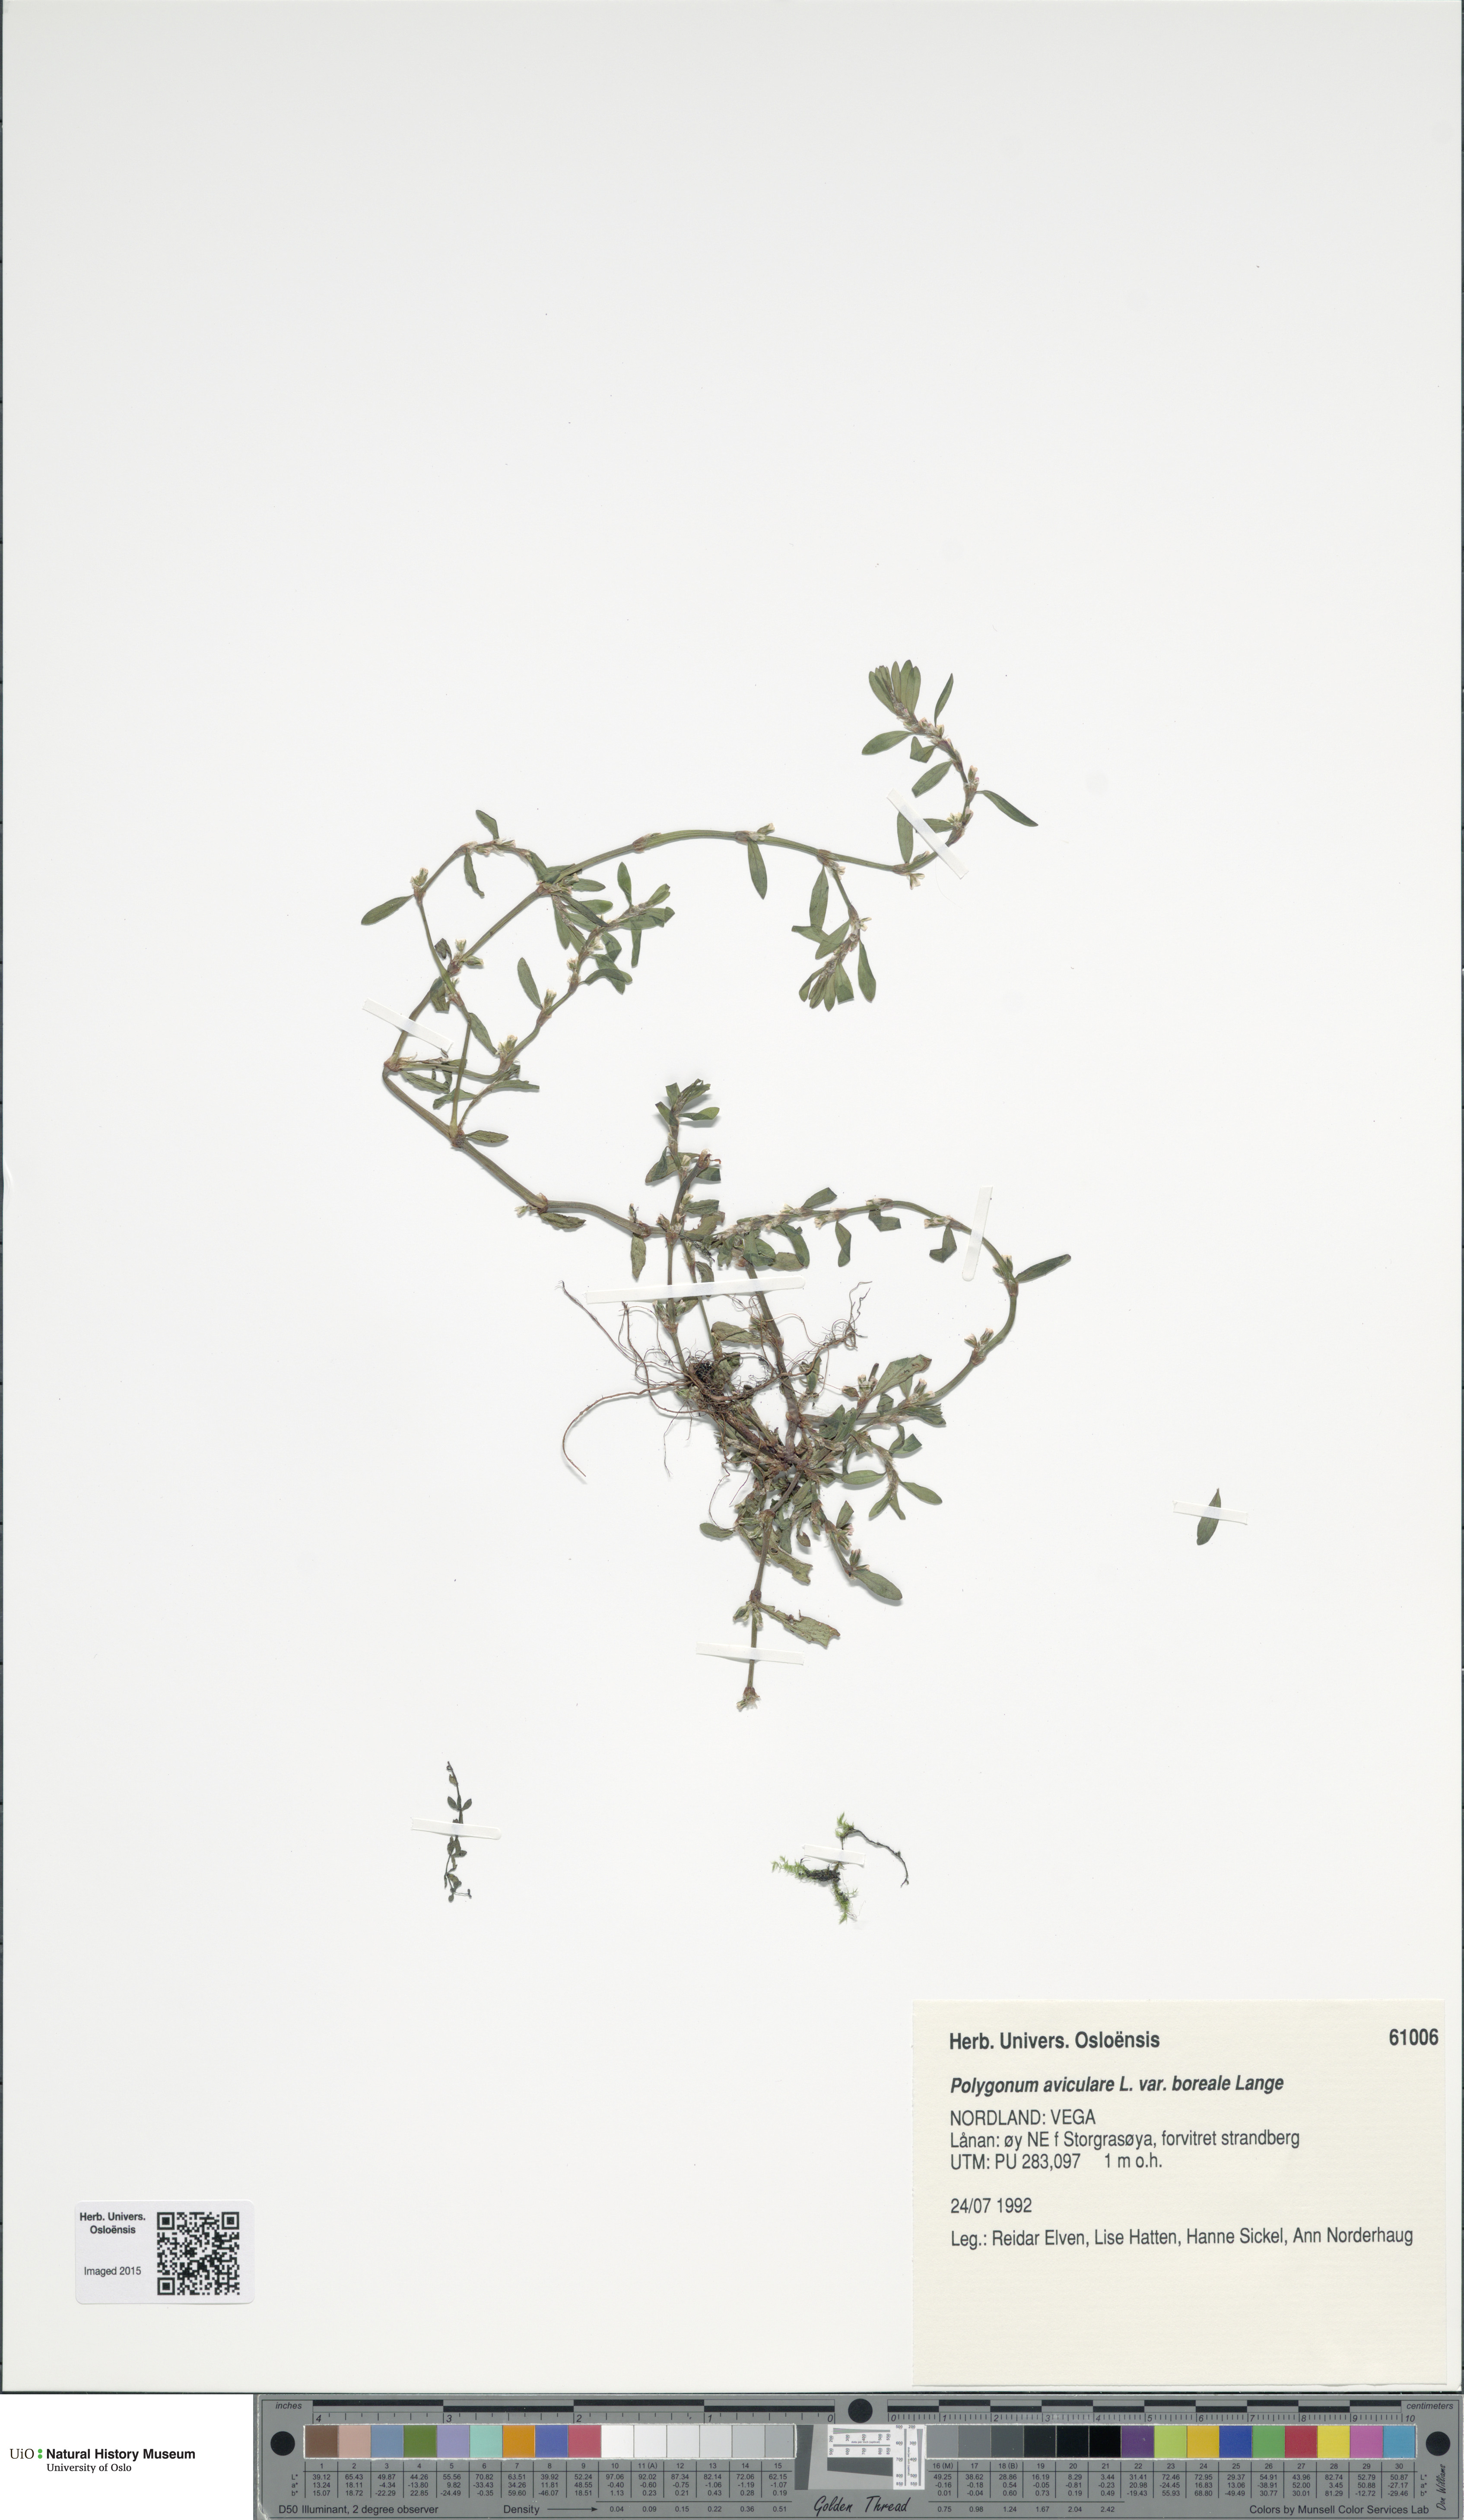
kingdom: Plantae
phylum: Tracheophyta
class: Magnoliopsida
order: Caryophyllales
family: Polygonaceae
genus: Polygonum
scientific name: Polygonum boreale
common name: Northern knotgrass
